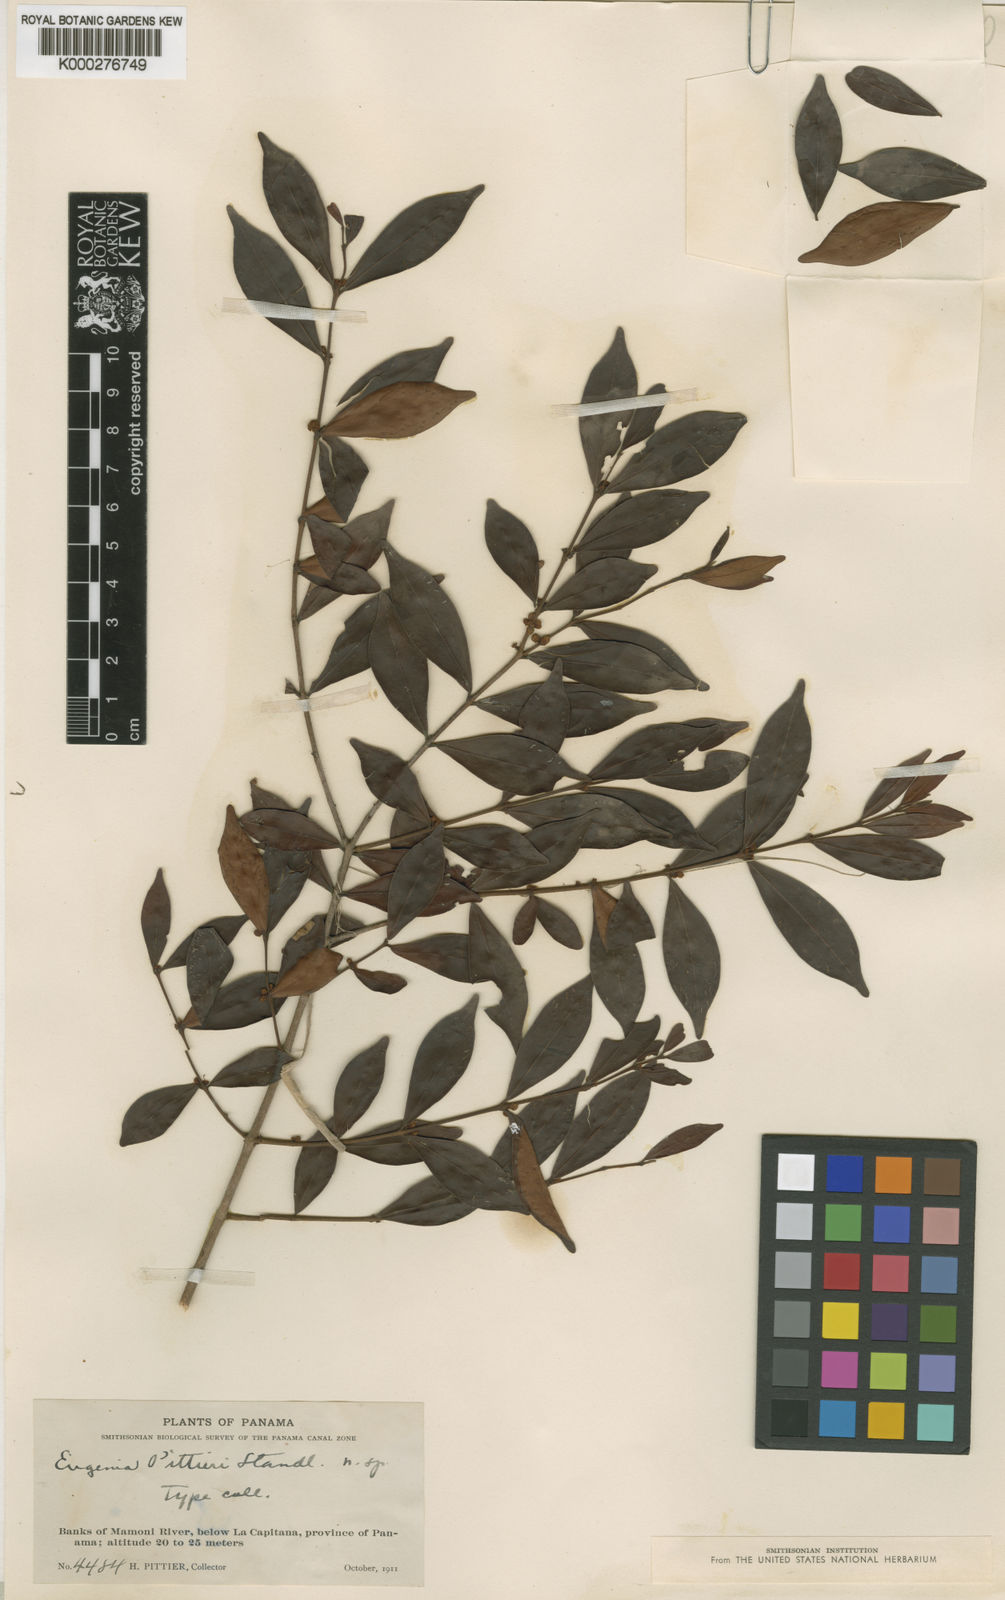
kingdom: Plantae
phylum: Tracheophyta
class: Magnoliopsida
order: Myrtales
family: Myrtaceae
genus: Eugenia
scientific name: Eugenia pittieri
